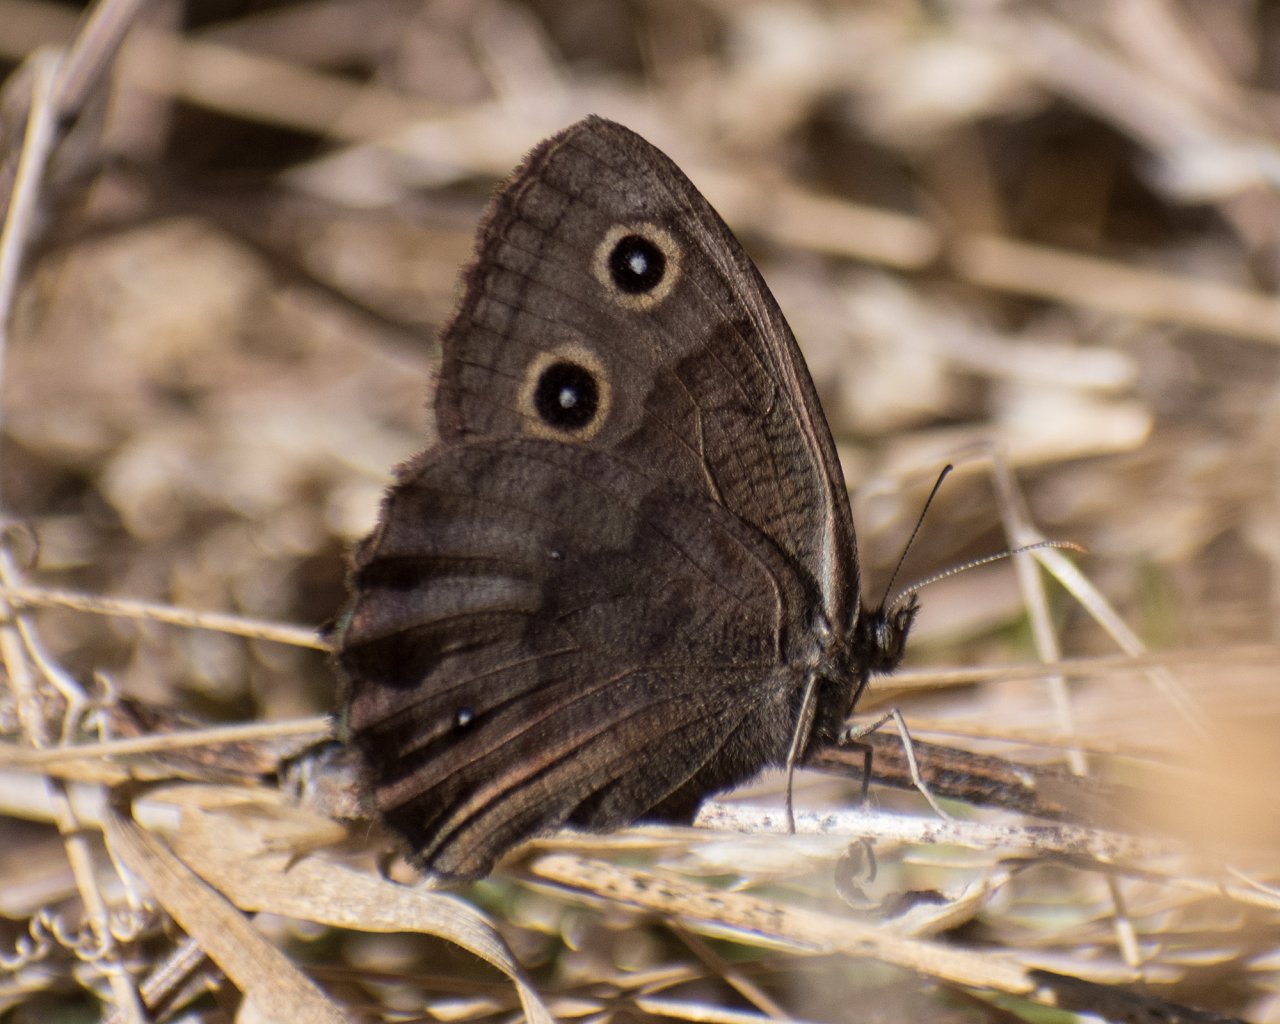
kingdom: Animalia
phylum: Arthropoda
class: Insecta
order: Lepidoptera
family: Nymphalidae
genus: Cercyonis
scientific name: Cercyonis pegala
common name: Common Wood-Nymph
